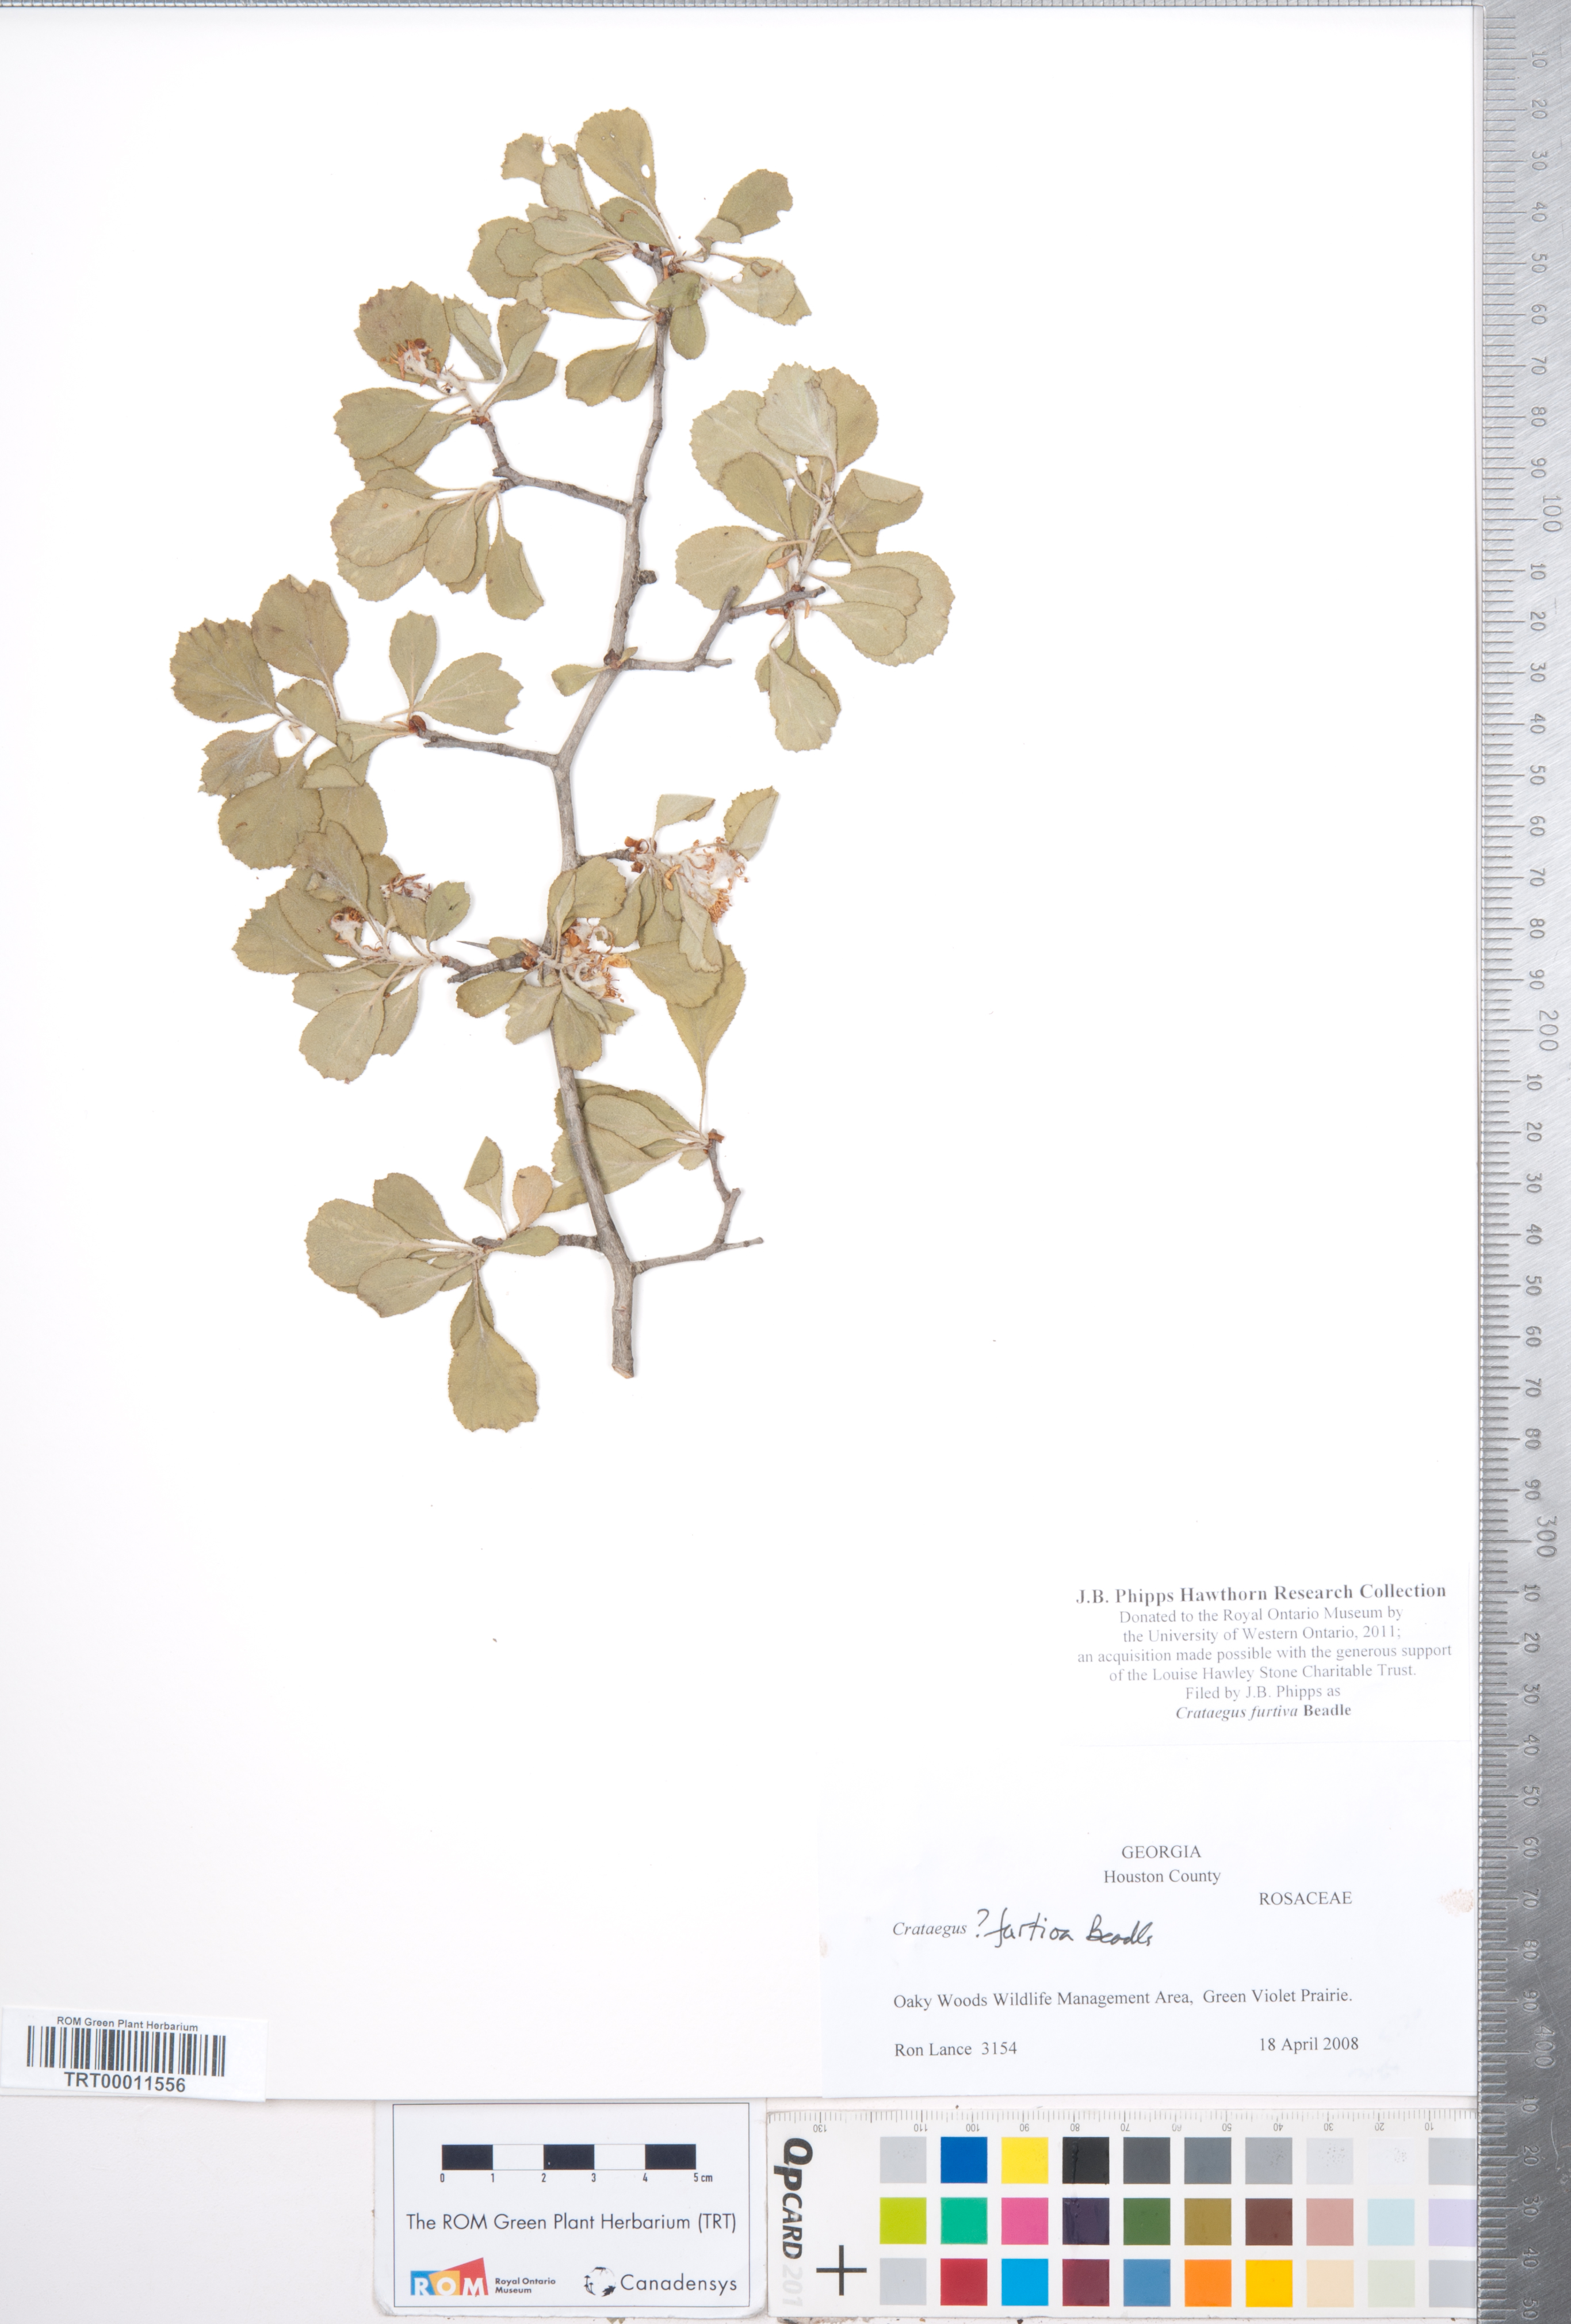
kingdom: Plantae
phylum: Tracheophyta
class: Magnoliopsida
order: Rosales
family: Rosaceae
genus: Crataegus
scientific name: Crataegus senta
